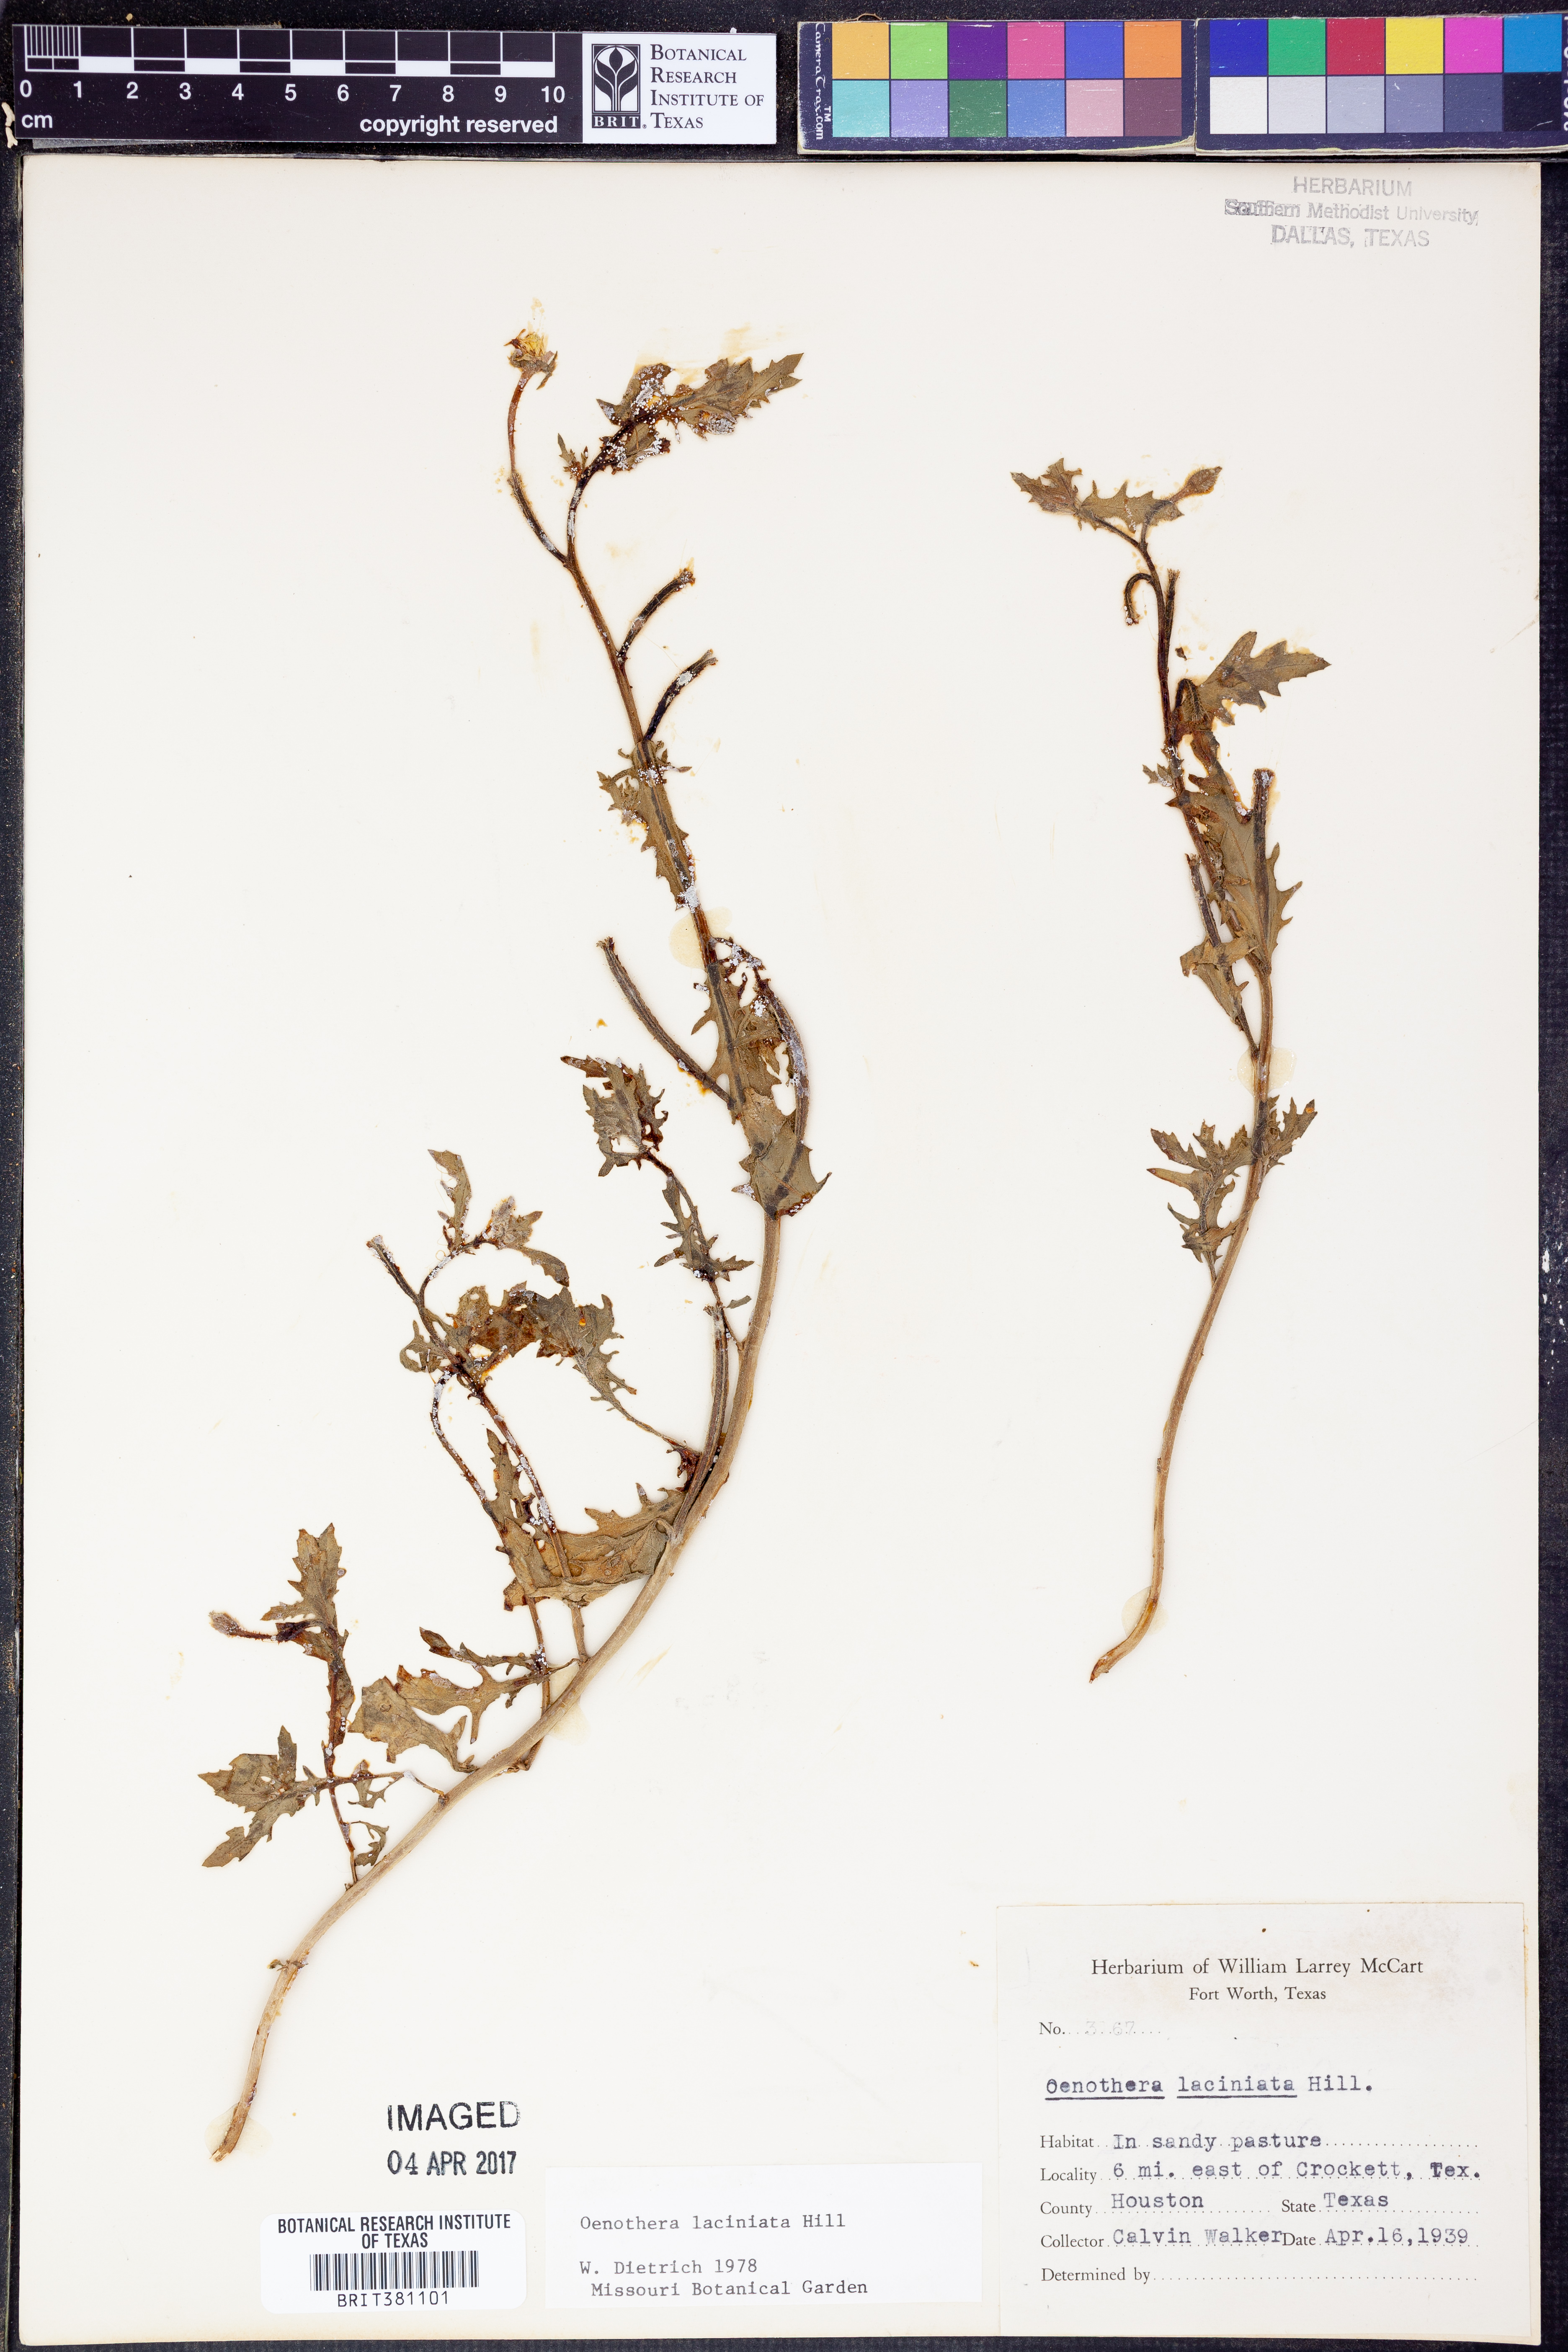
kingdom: Plantae
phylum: Tracheophyta
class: Magnoliopsida
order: Myrtales
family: Onagraceae
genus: Oenothera
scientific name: Oenothera laciniata
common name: Cut-leaved evening-primrose
